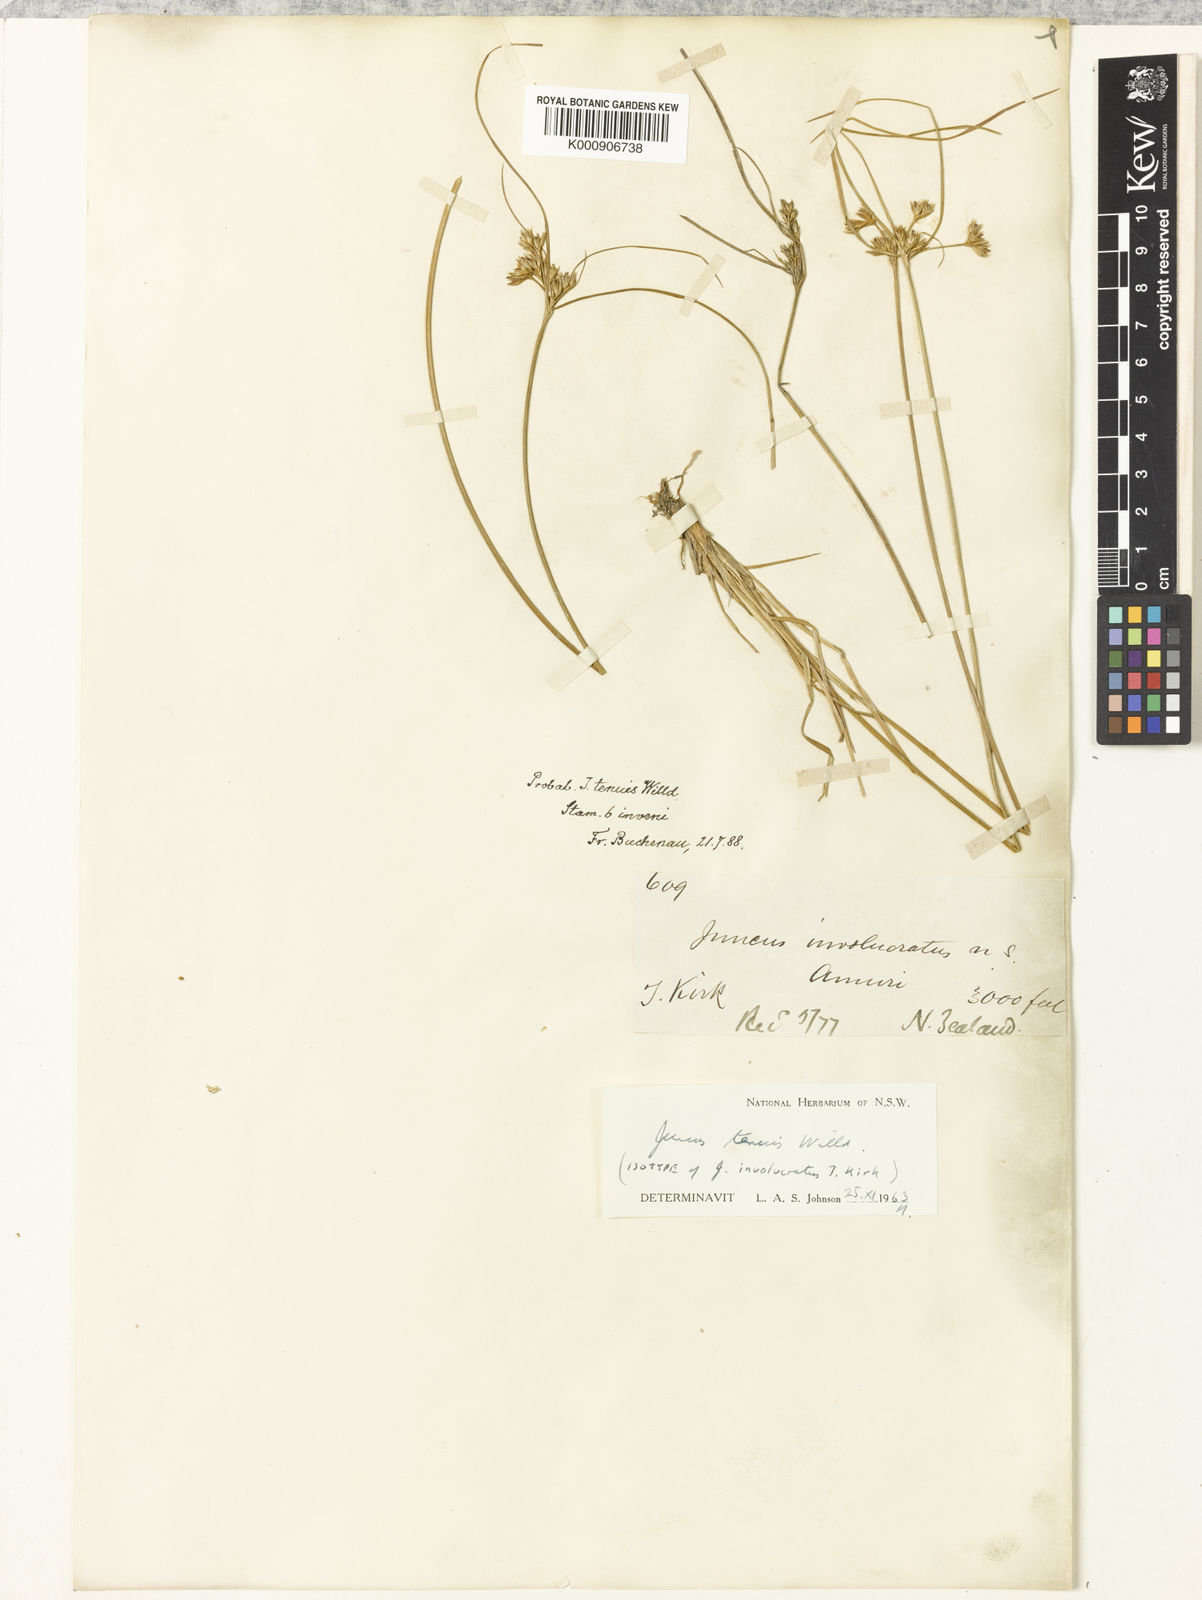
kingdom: Plantae
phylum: Tracheophyta
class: Liliopsida
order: Poales
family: Juncaceae
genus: Juncus
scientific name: Juncus tenuis
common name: Slender rush
